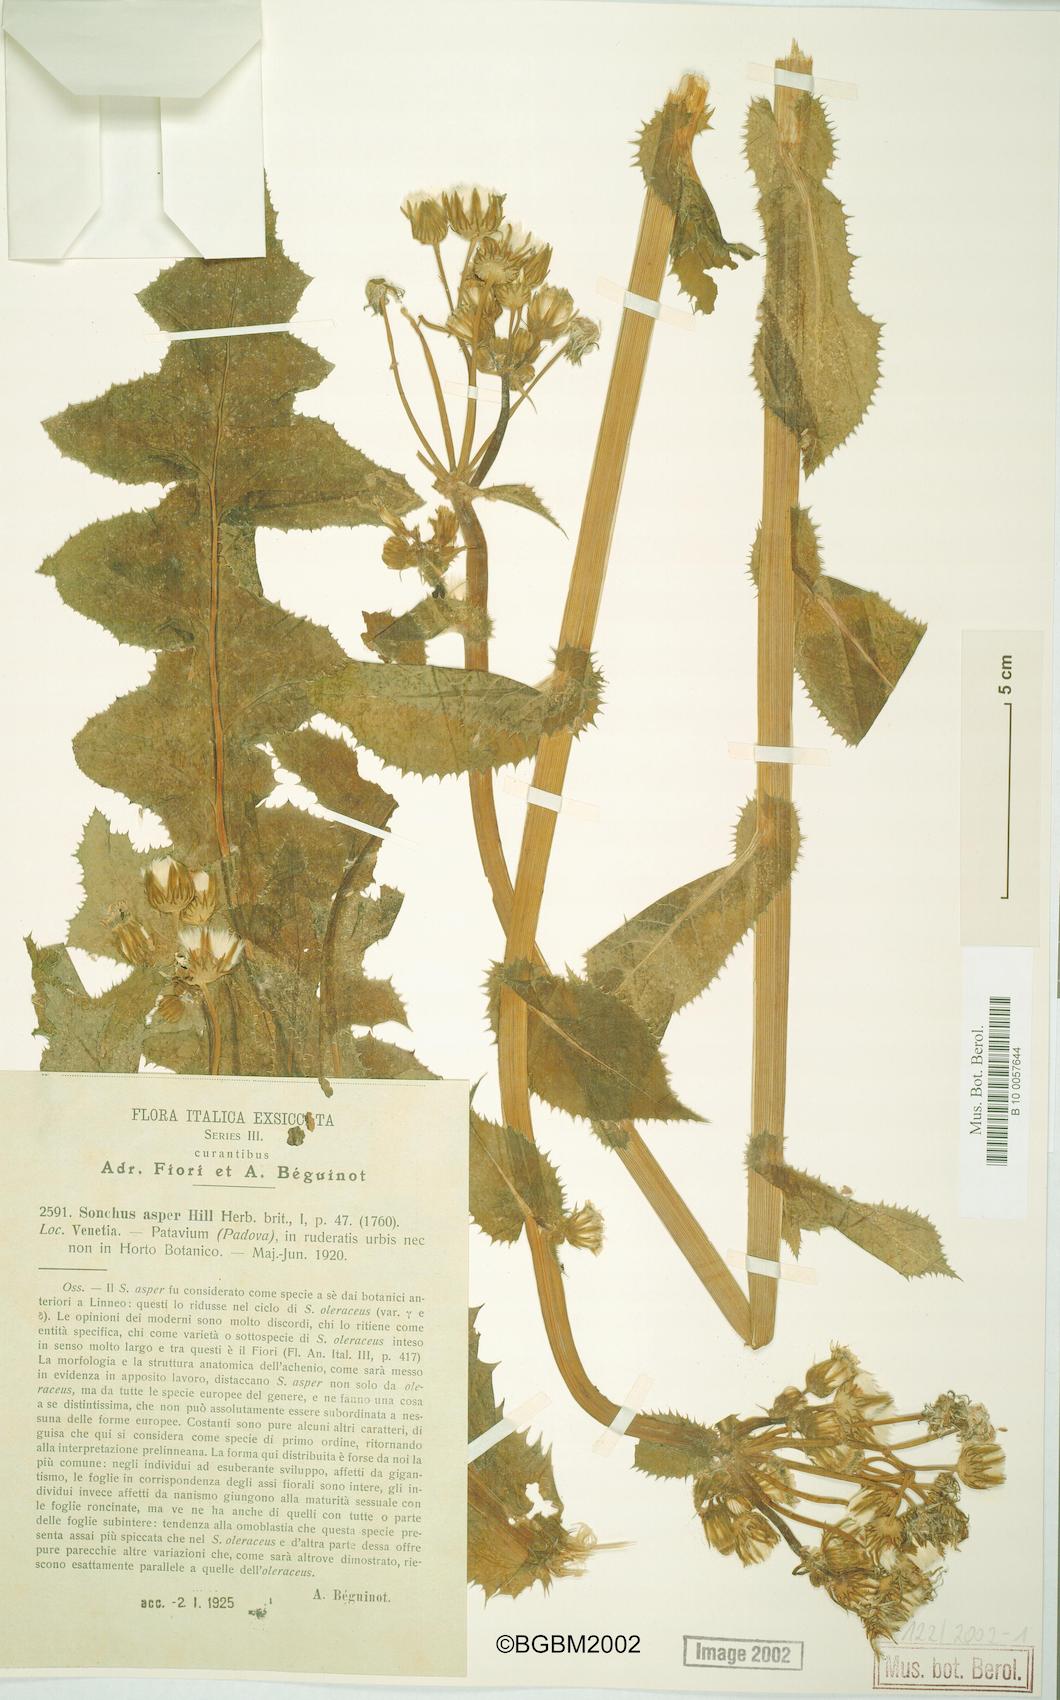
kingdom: Plantae
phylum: Tracheophyta
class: Magnoliopsida
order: Asterales
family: Asteraceae
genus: Sonchus
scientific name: Sonchus asper
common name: Prickly sow-thistle
